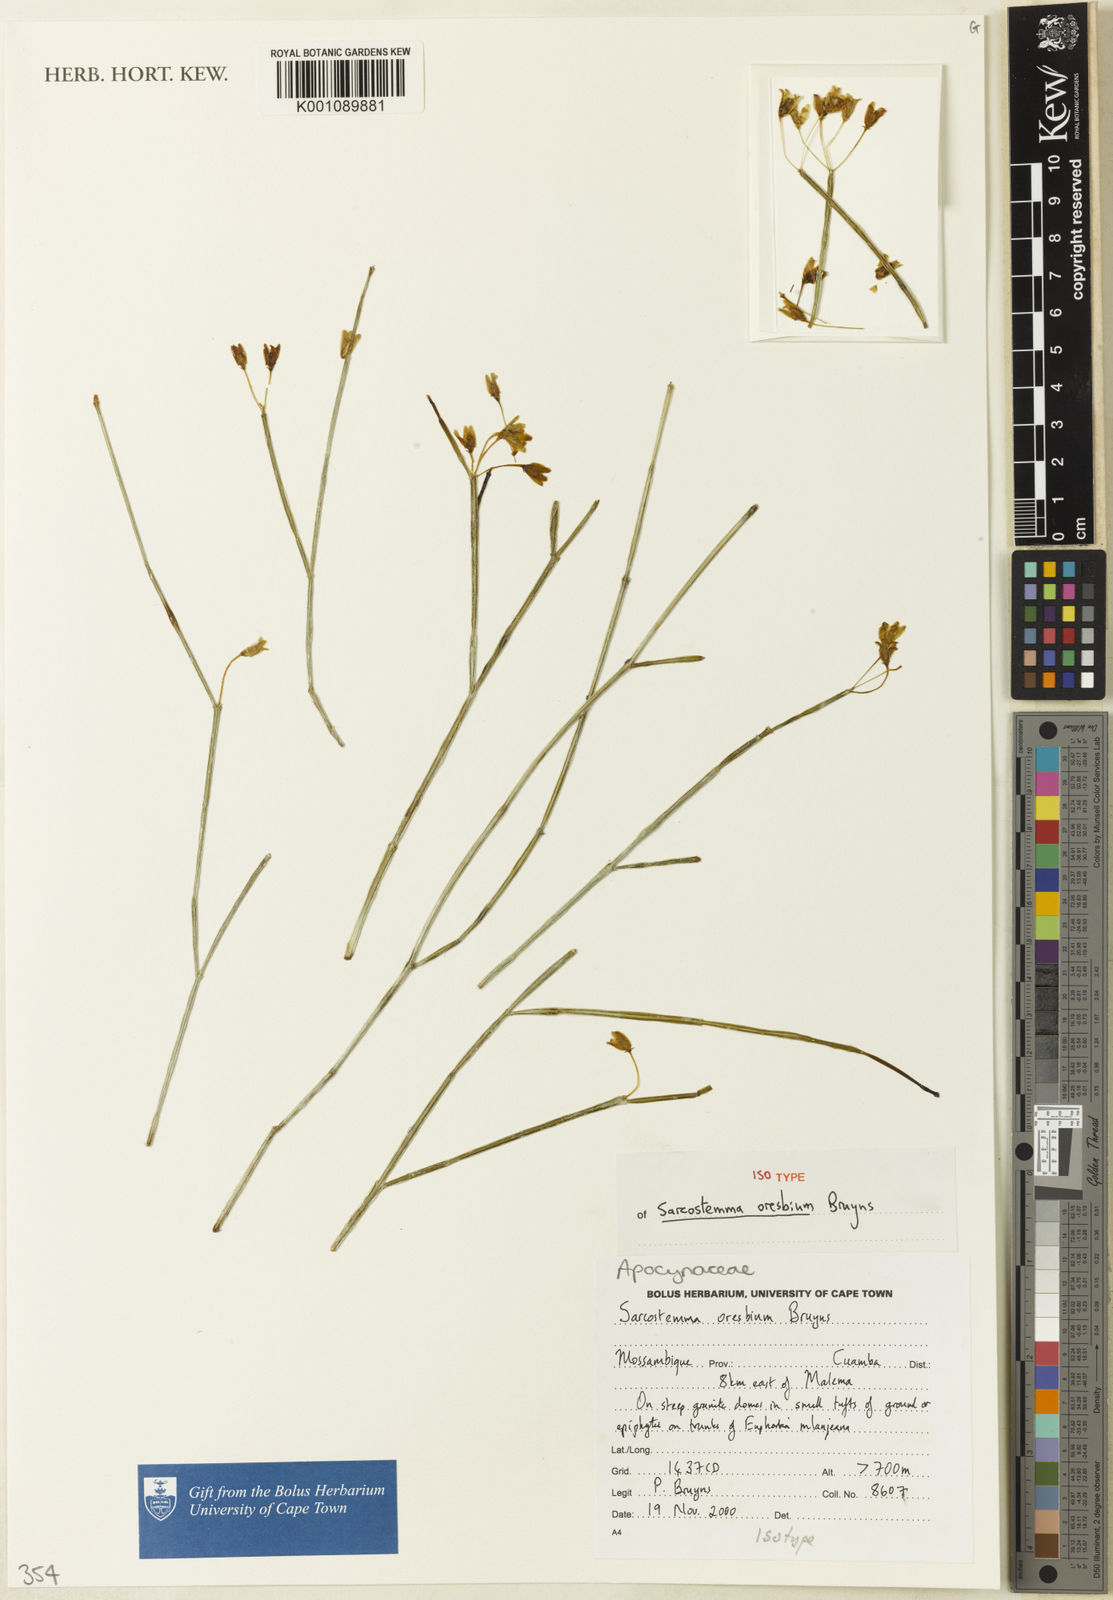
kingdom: Plantae
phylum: Tracheophyta
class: Magnoliopsida
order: Gentianales
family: Apocynaceae
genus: Cynanchum
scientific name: Cynanchum oresbium
